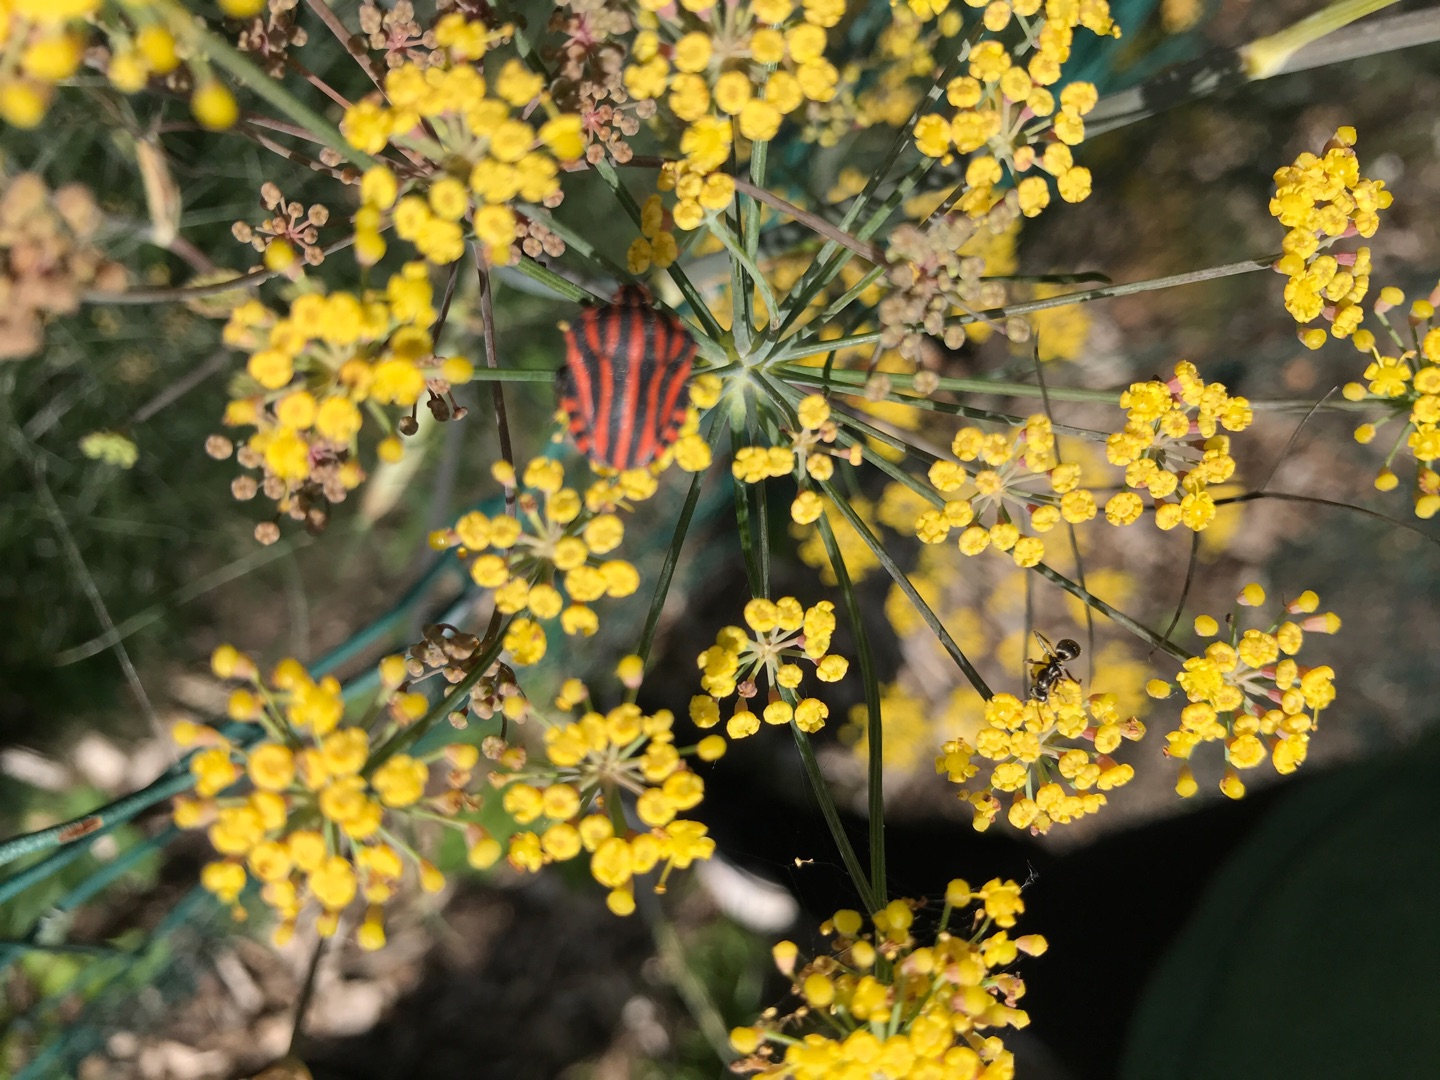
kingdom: Animalia
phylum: Arthropoda
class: Insecta
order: Hemiptera
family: Pentatomidae
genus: Graphosoma
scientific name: Graphosoma italicum
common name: Stribetæge
